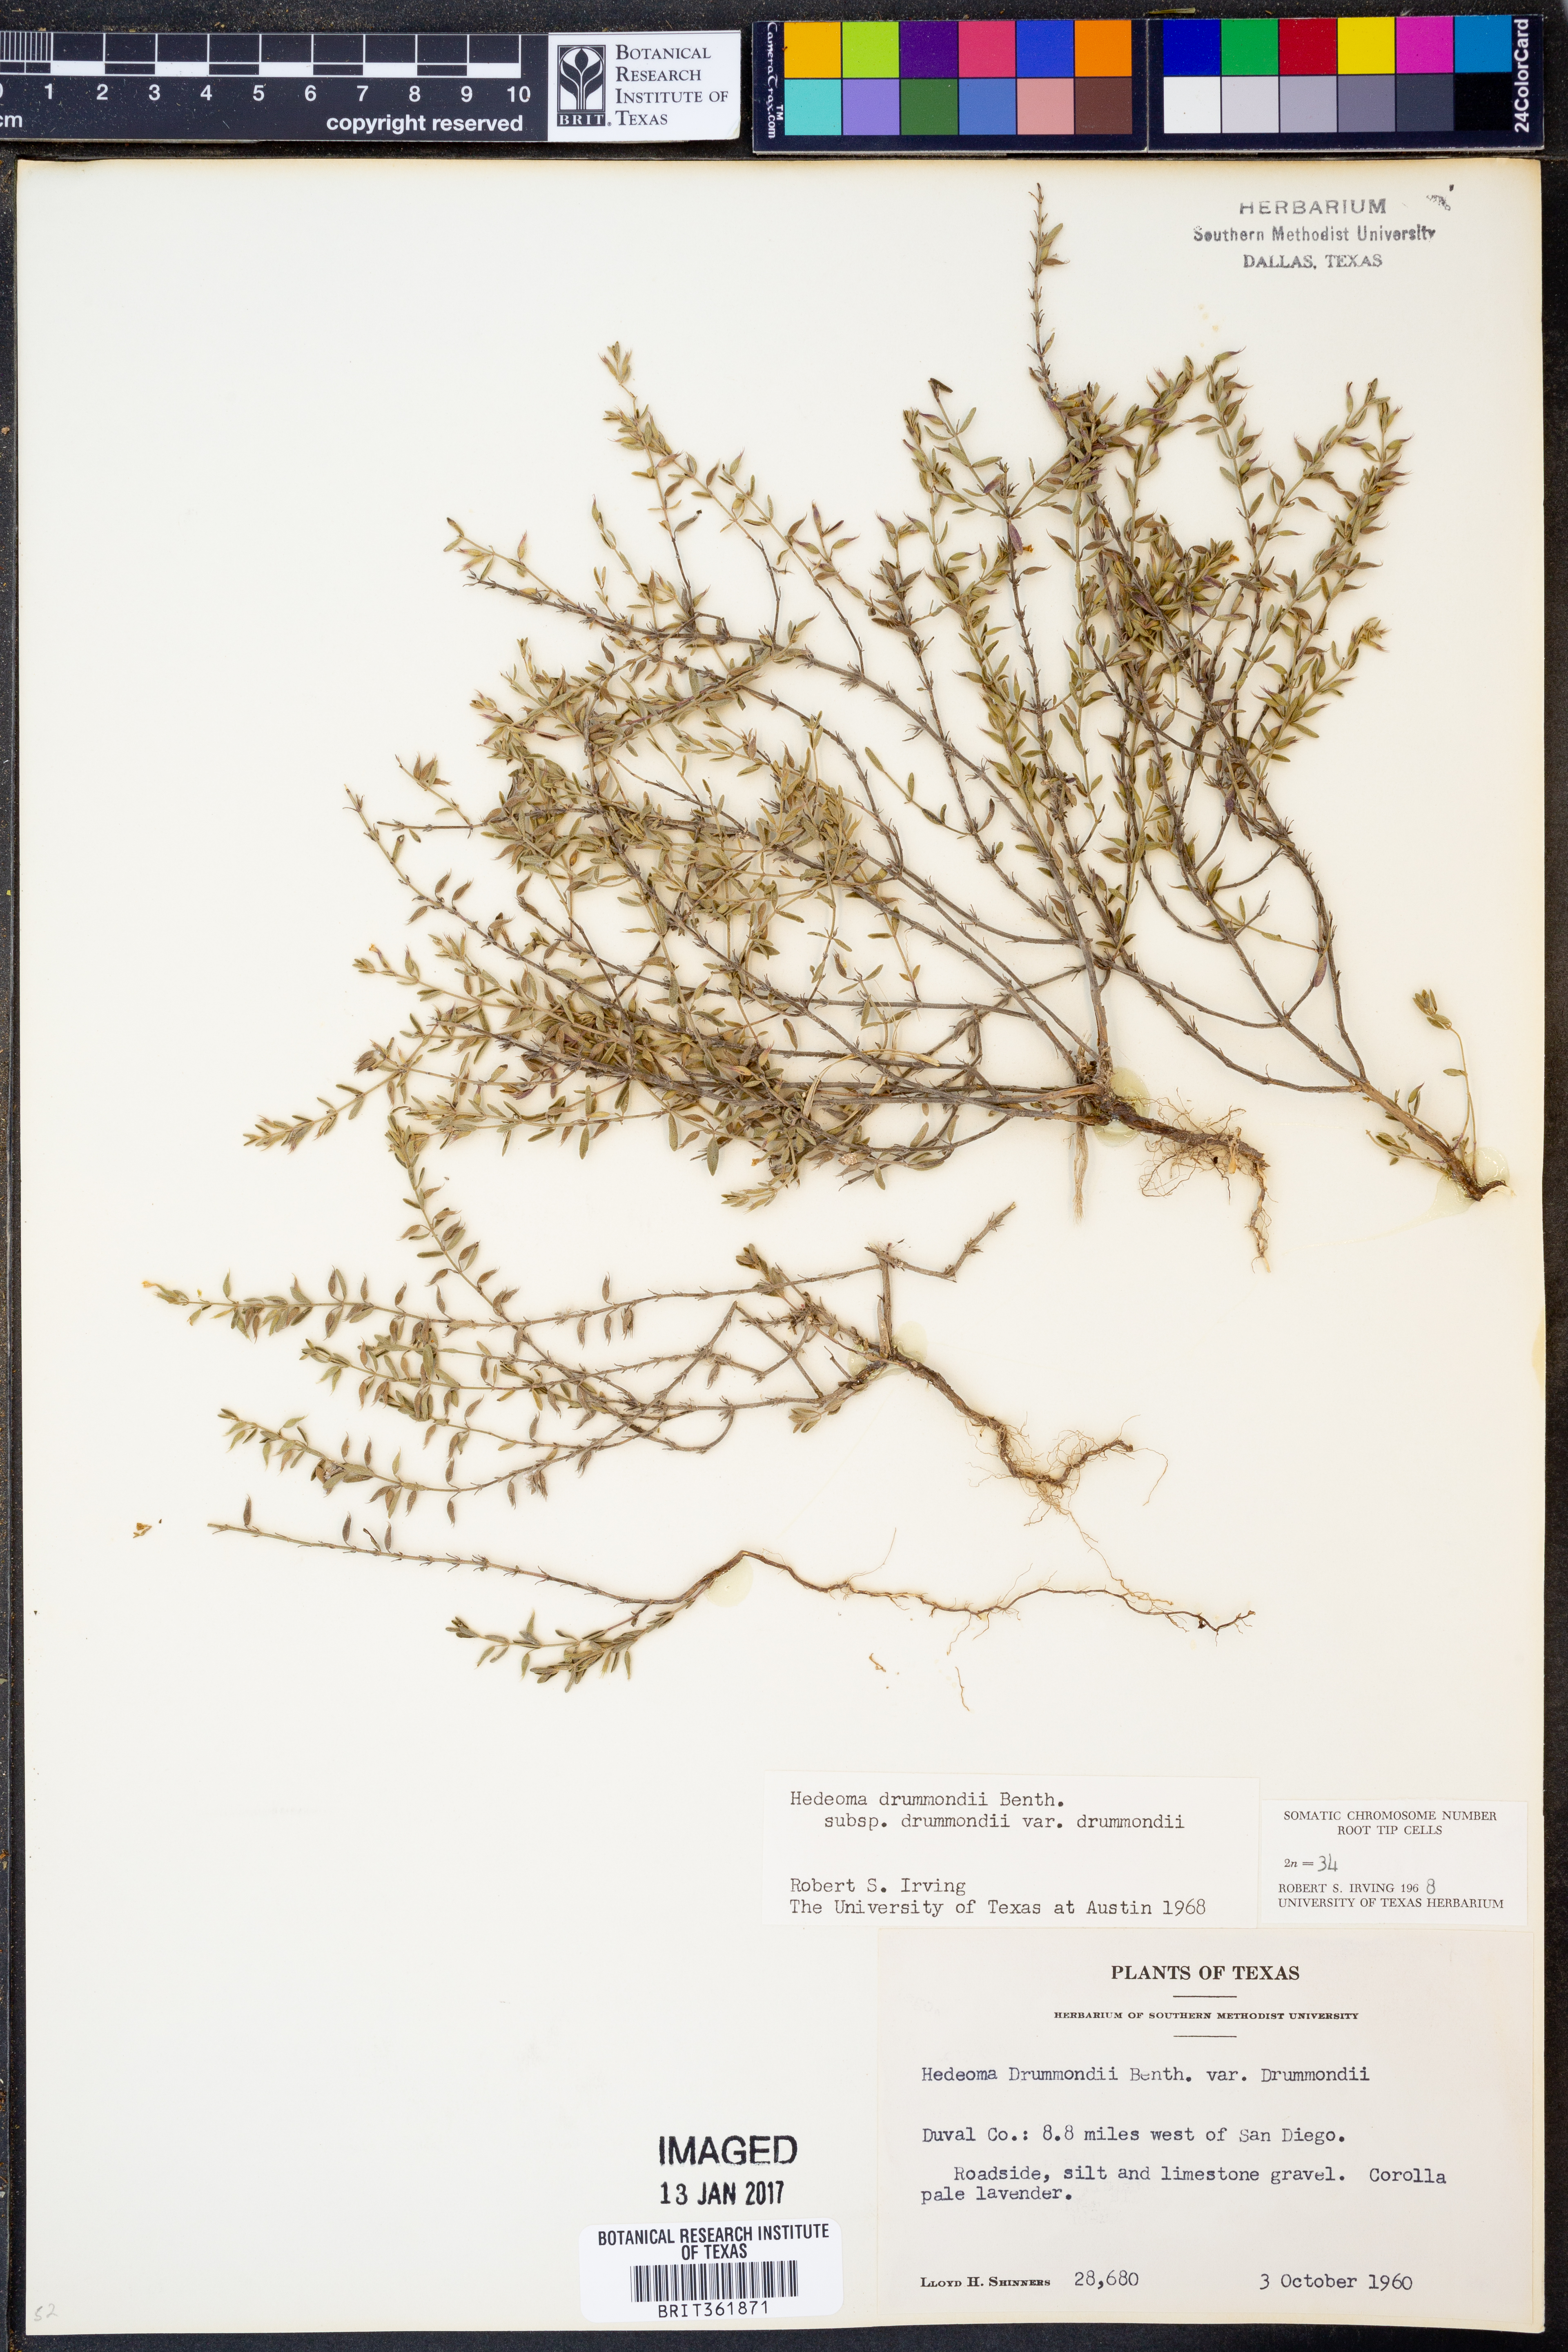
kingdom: Plantae
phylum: Tracheophyta
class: Magnoliopsida
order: Lamiales
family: Lamiaceae
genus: Hedeoma
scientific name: Hedeoma drummondii
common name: New mexico pennyroyal
